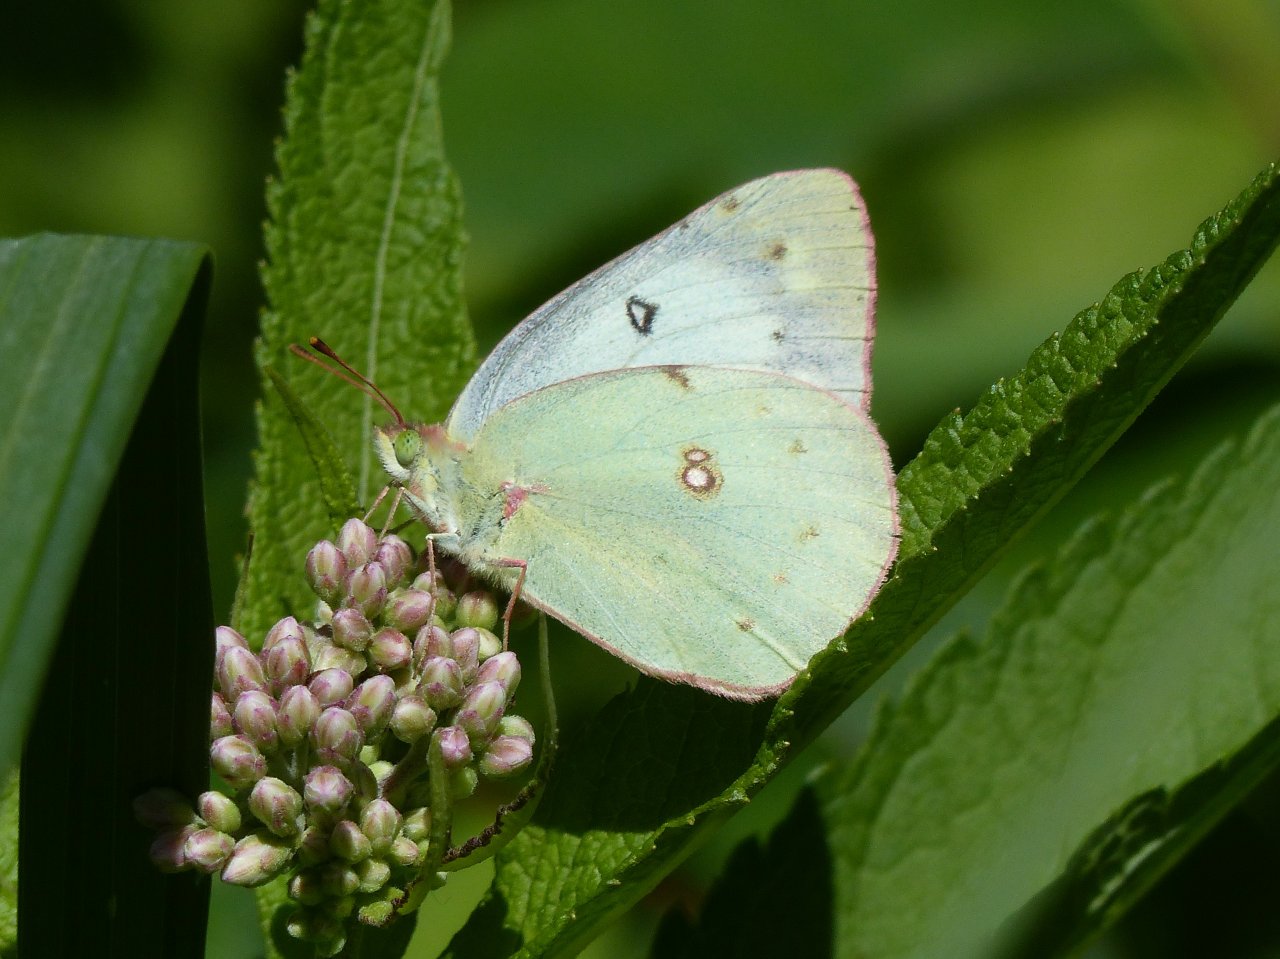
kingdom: Animalia
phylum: Arthropoda
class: Insecta
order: Lepidoptera
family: Pieridae
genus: Colias
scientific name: Colias philodice
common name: Clouded Sulphur
